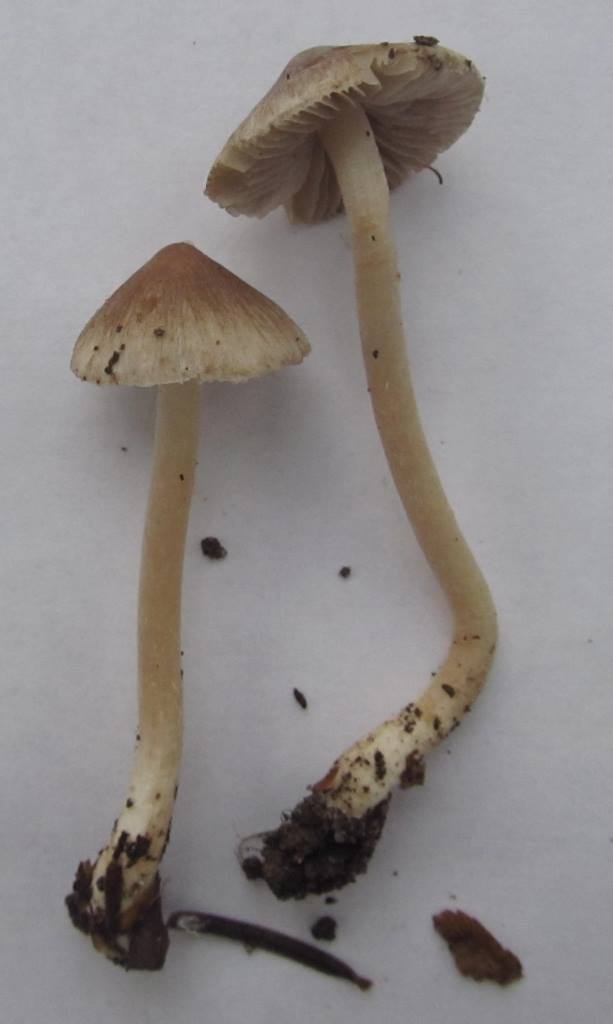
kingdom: Fungi
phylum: Basidiomycota
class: Agaricomycetes
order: Agaricales
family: Inocybaceae
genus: Inocybe
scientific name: Inocybe
